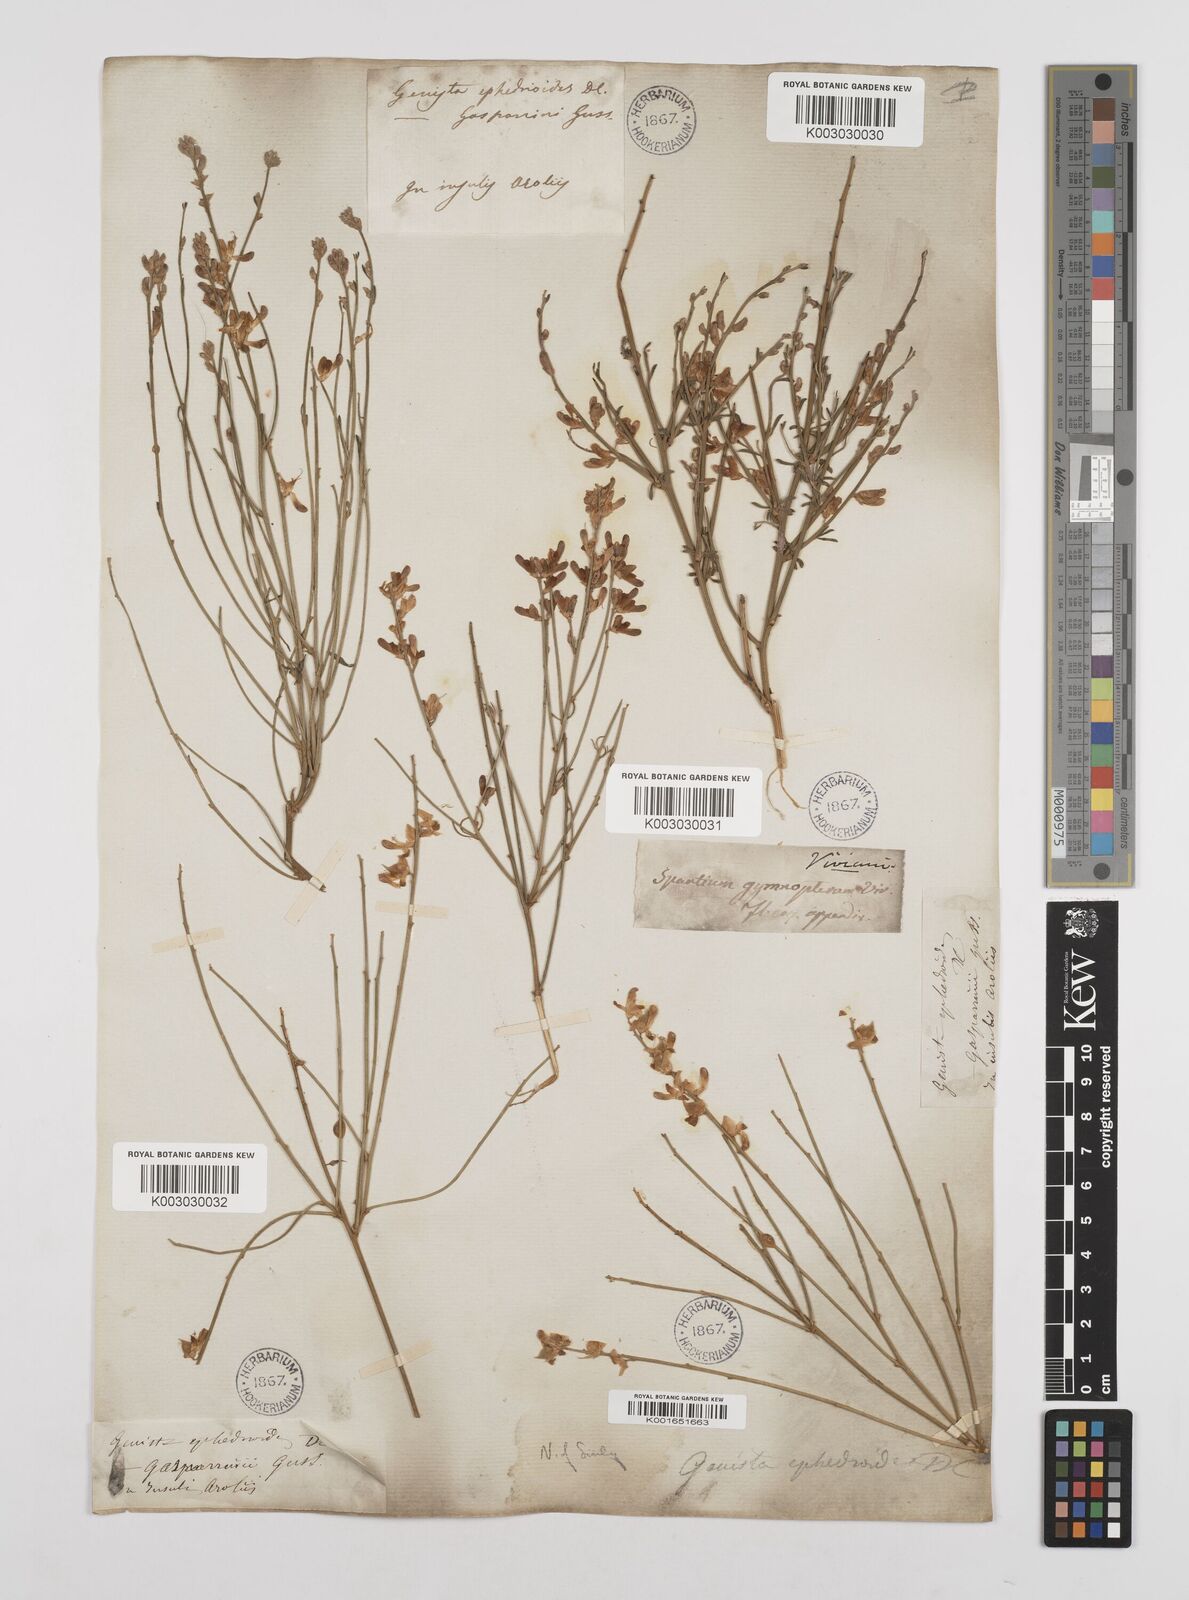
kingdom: Plantae
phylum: Tracheophyta
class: Magnoliopsida
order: Fabales
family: Fabaceae
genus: Genista
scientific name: Genista ephedroides
